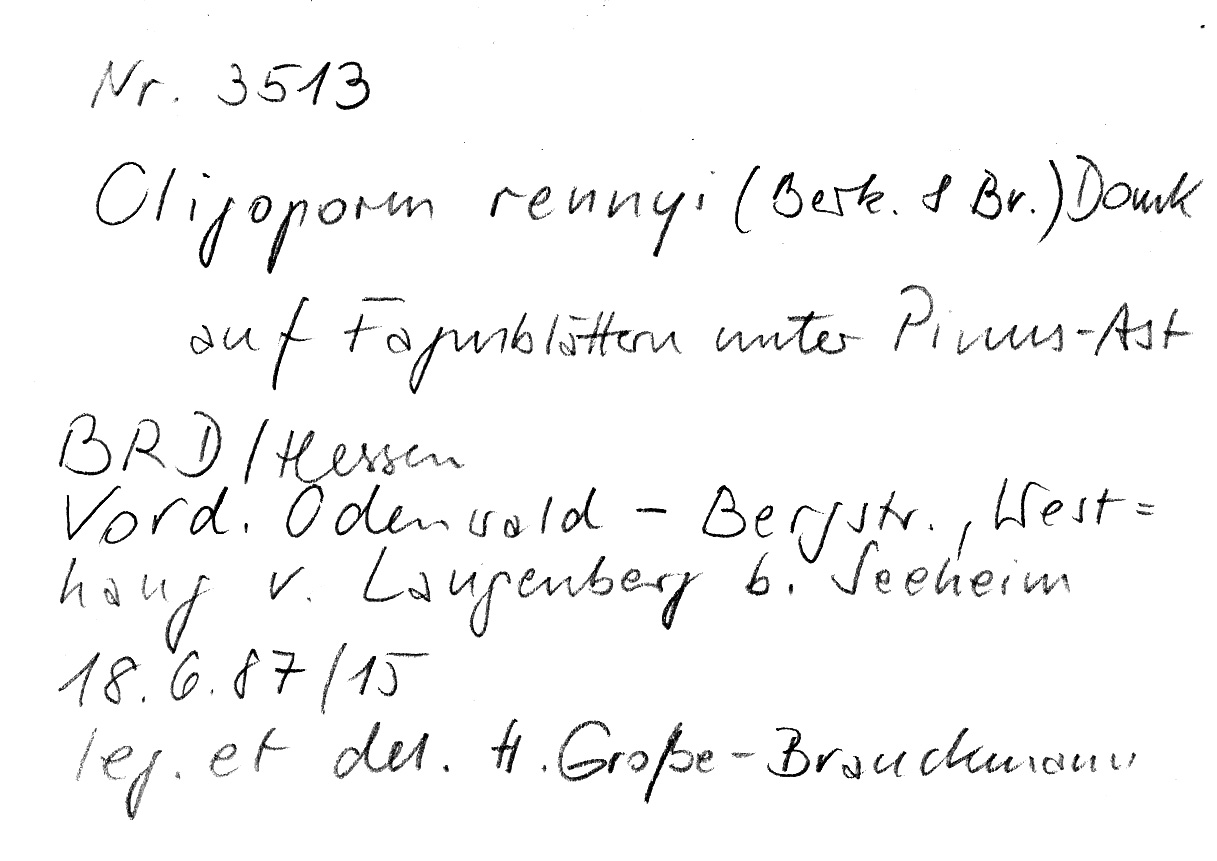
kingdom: Plantae
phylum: Tracheophyta
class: Pinopsida
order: Pinales
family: Pinaceae
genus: Pinus
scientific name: Pinus
